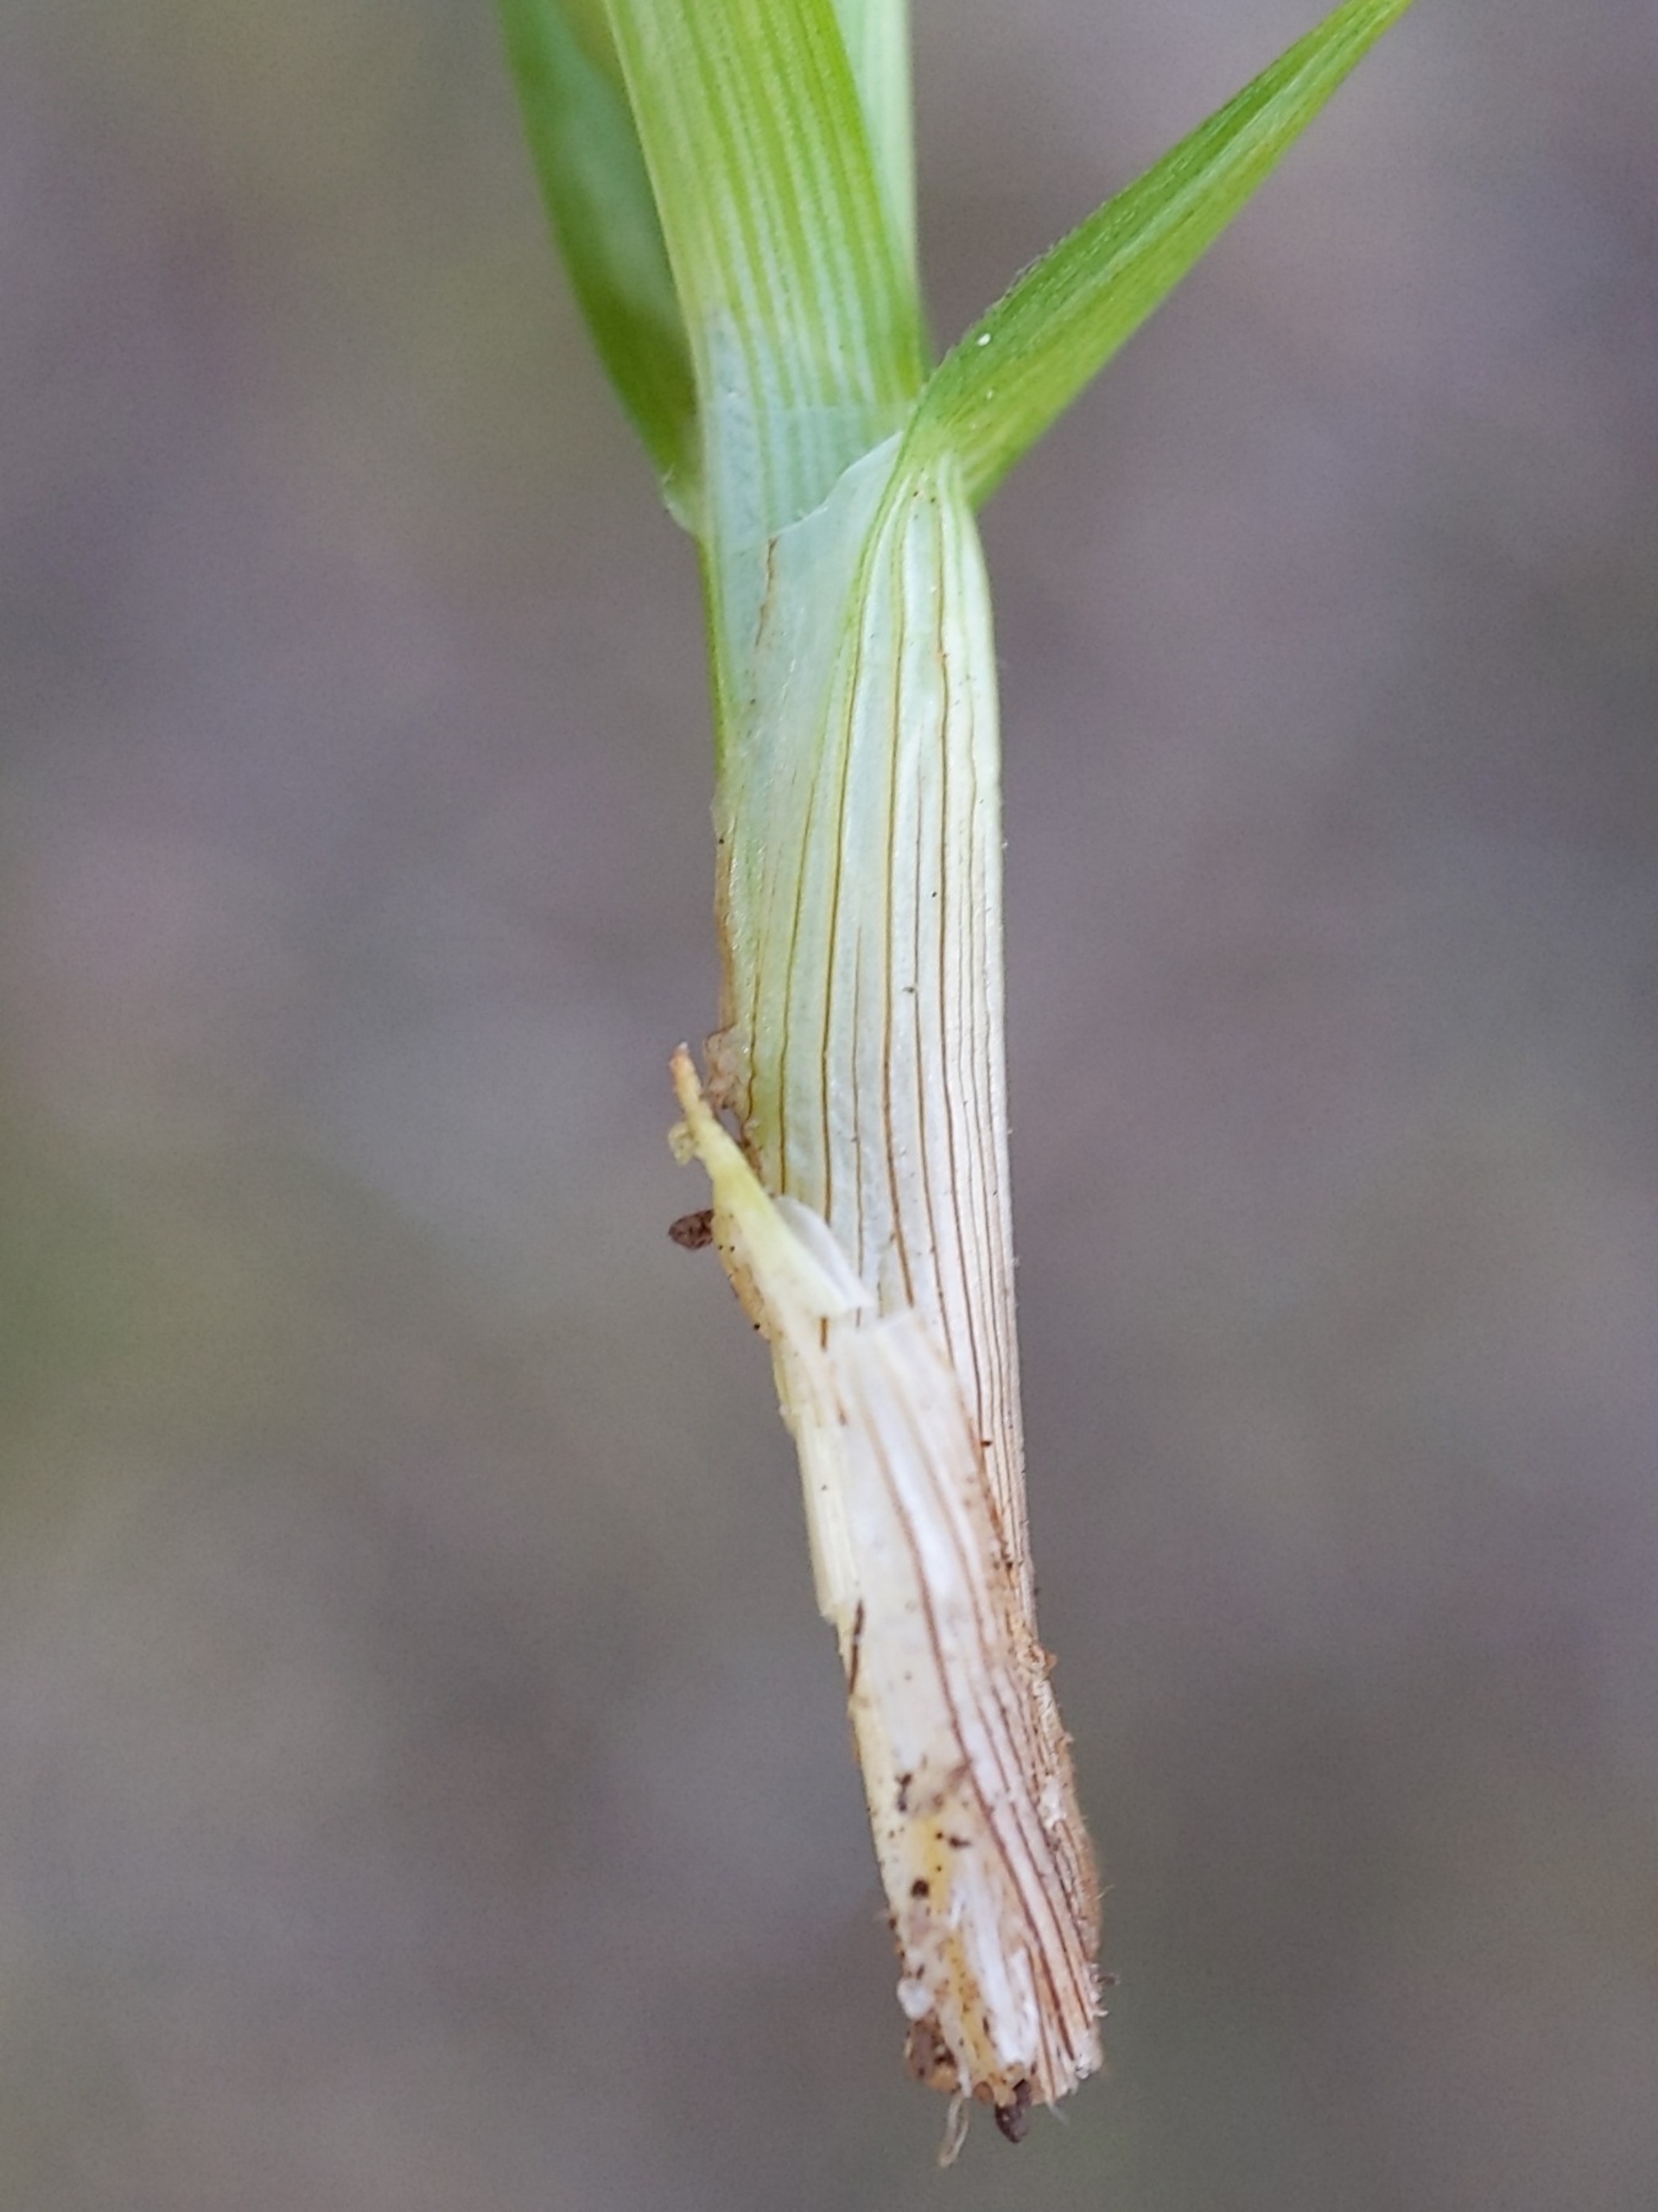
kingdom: Plantae
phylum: Tracheophyta
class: Liliopsida
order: Poales
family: Cyperaceae
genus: Carex
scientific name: Carex leporina
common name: Hare-star
